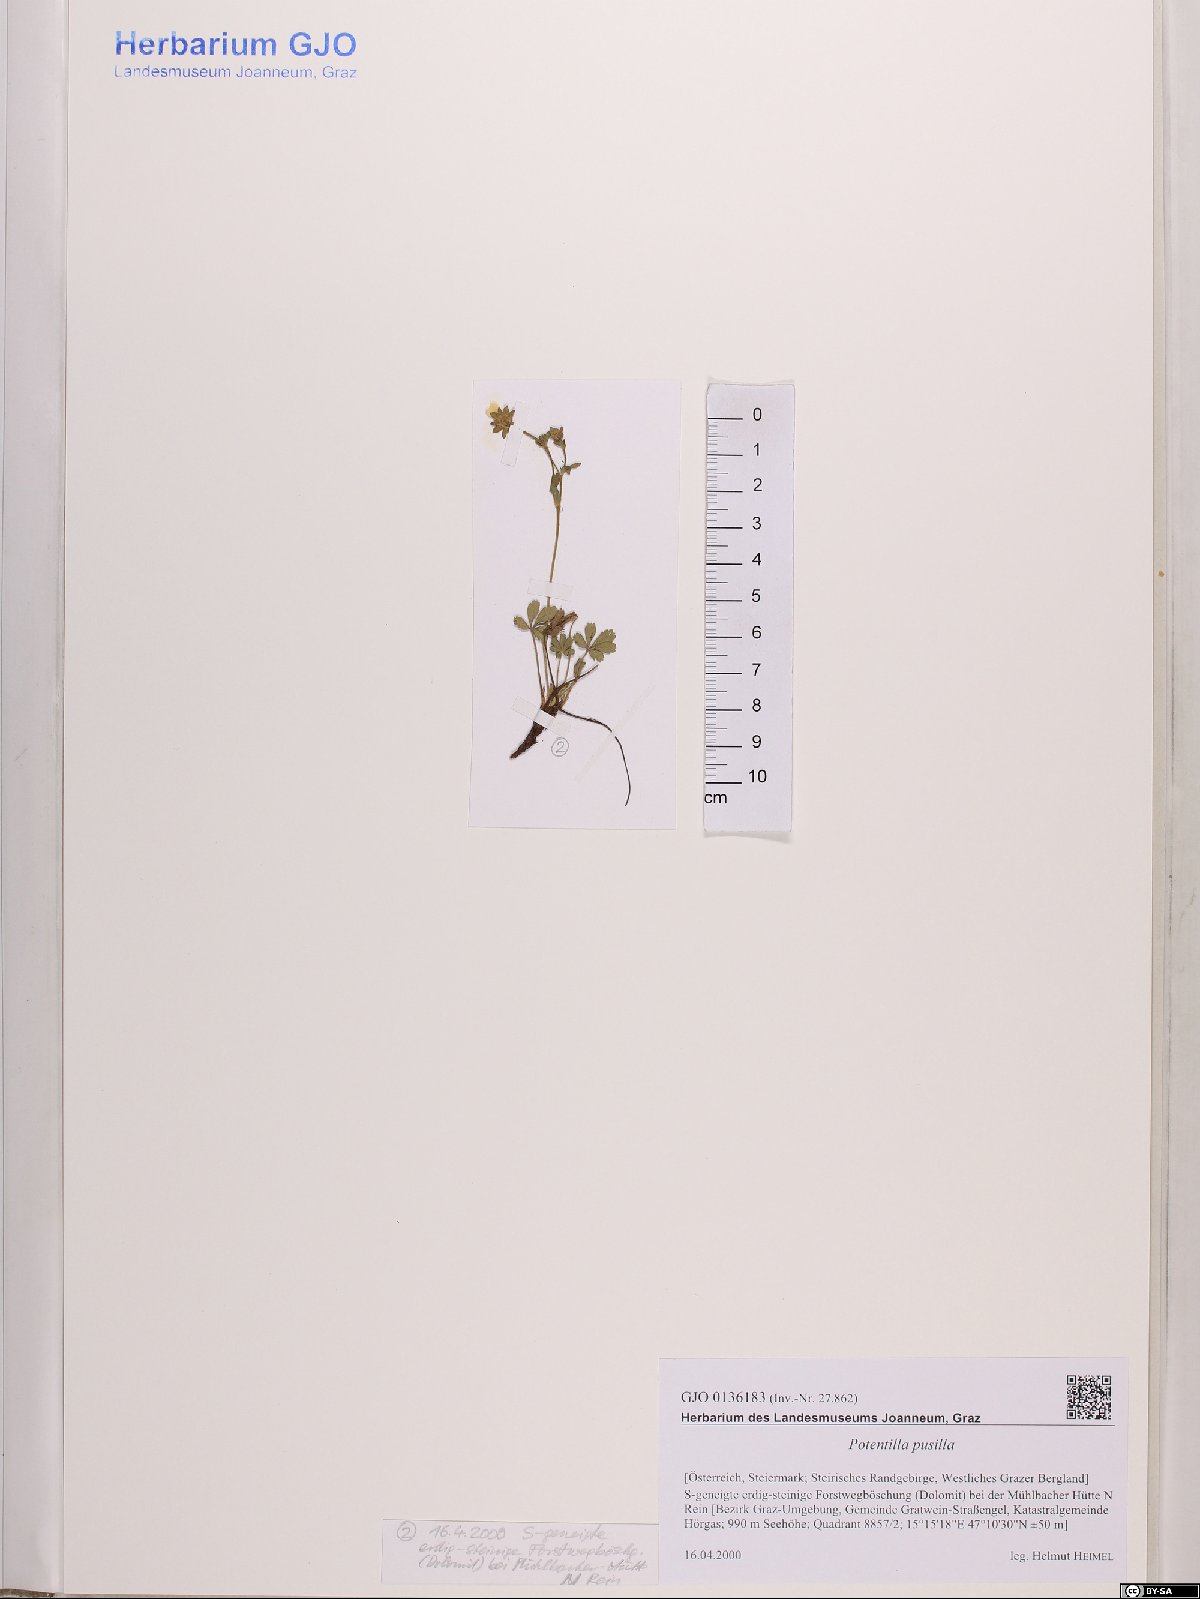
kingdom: Plantae
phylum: Tracheophyta
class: Magnoliopsida
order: Rosales
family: Rosaceae
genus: Potentilla
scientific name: Potentilla pusilla
